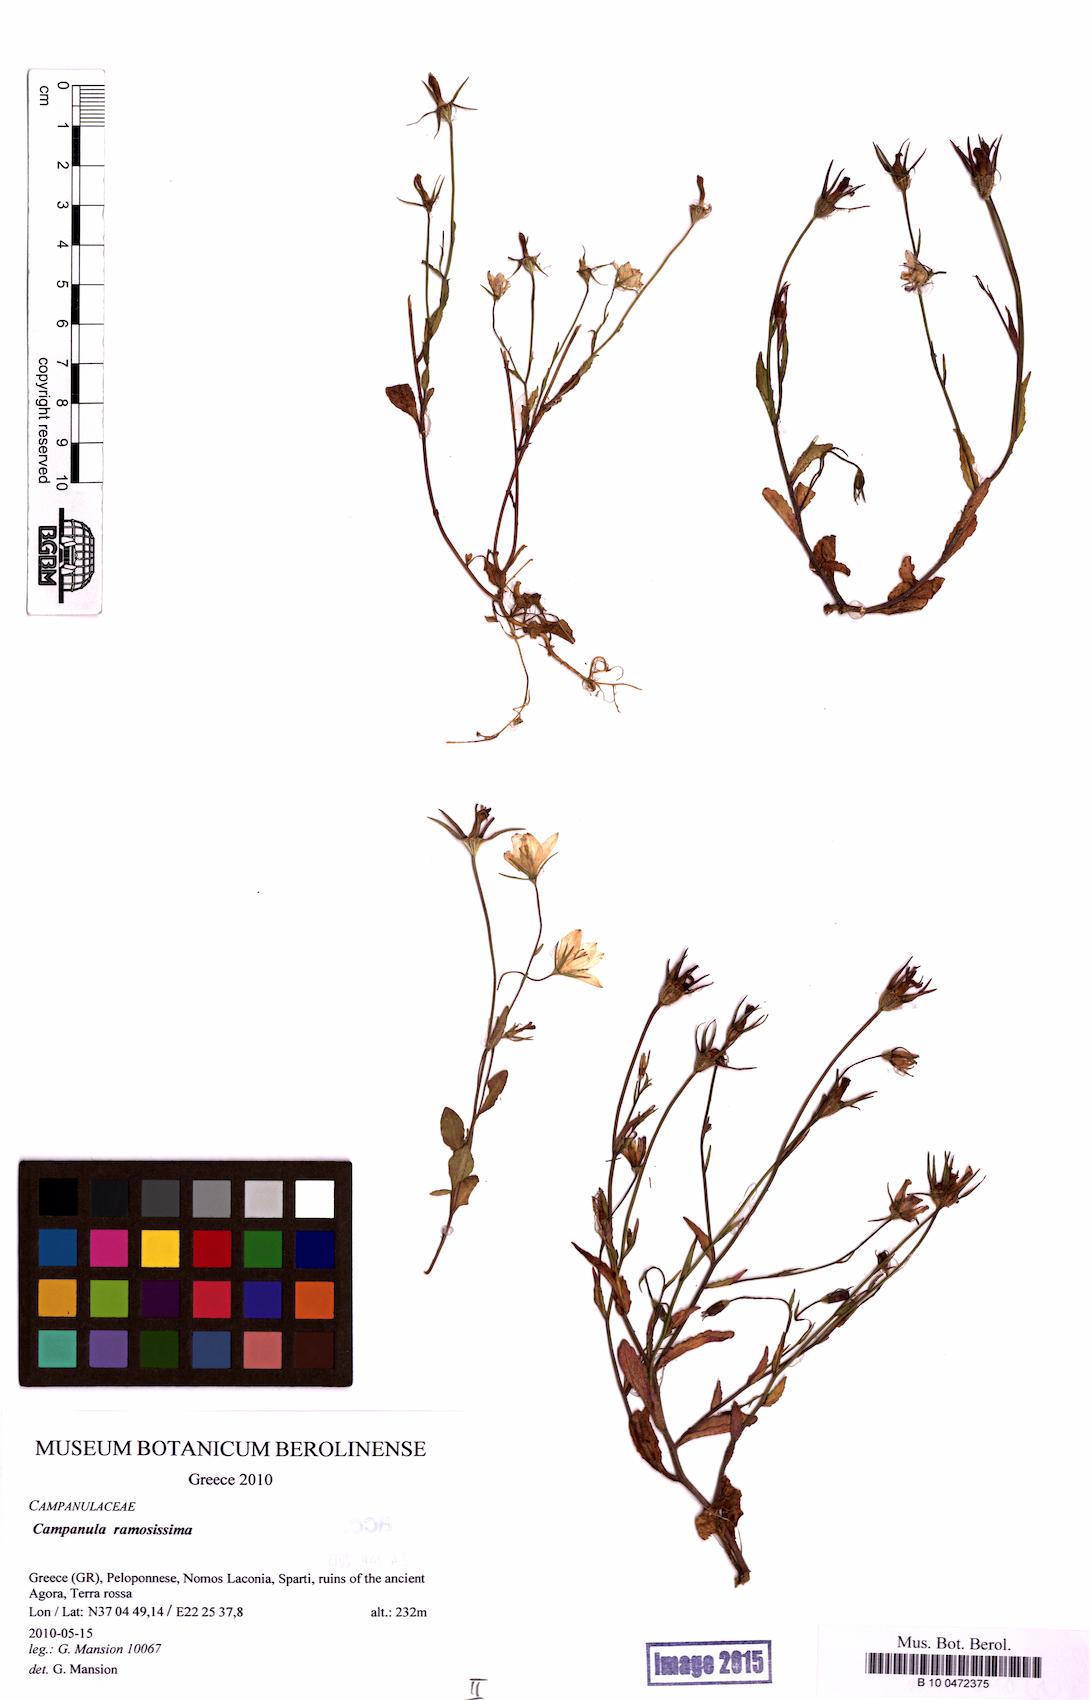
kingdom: Plantae
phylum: Tracheophyta
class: Magnoliopsida
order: Asterales
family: Campanulaceae
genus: Campanula
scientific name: Campanula ramosissima
